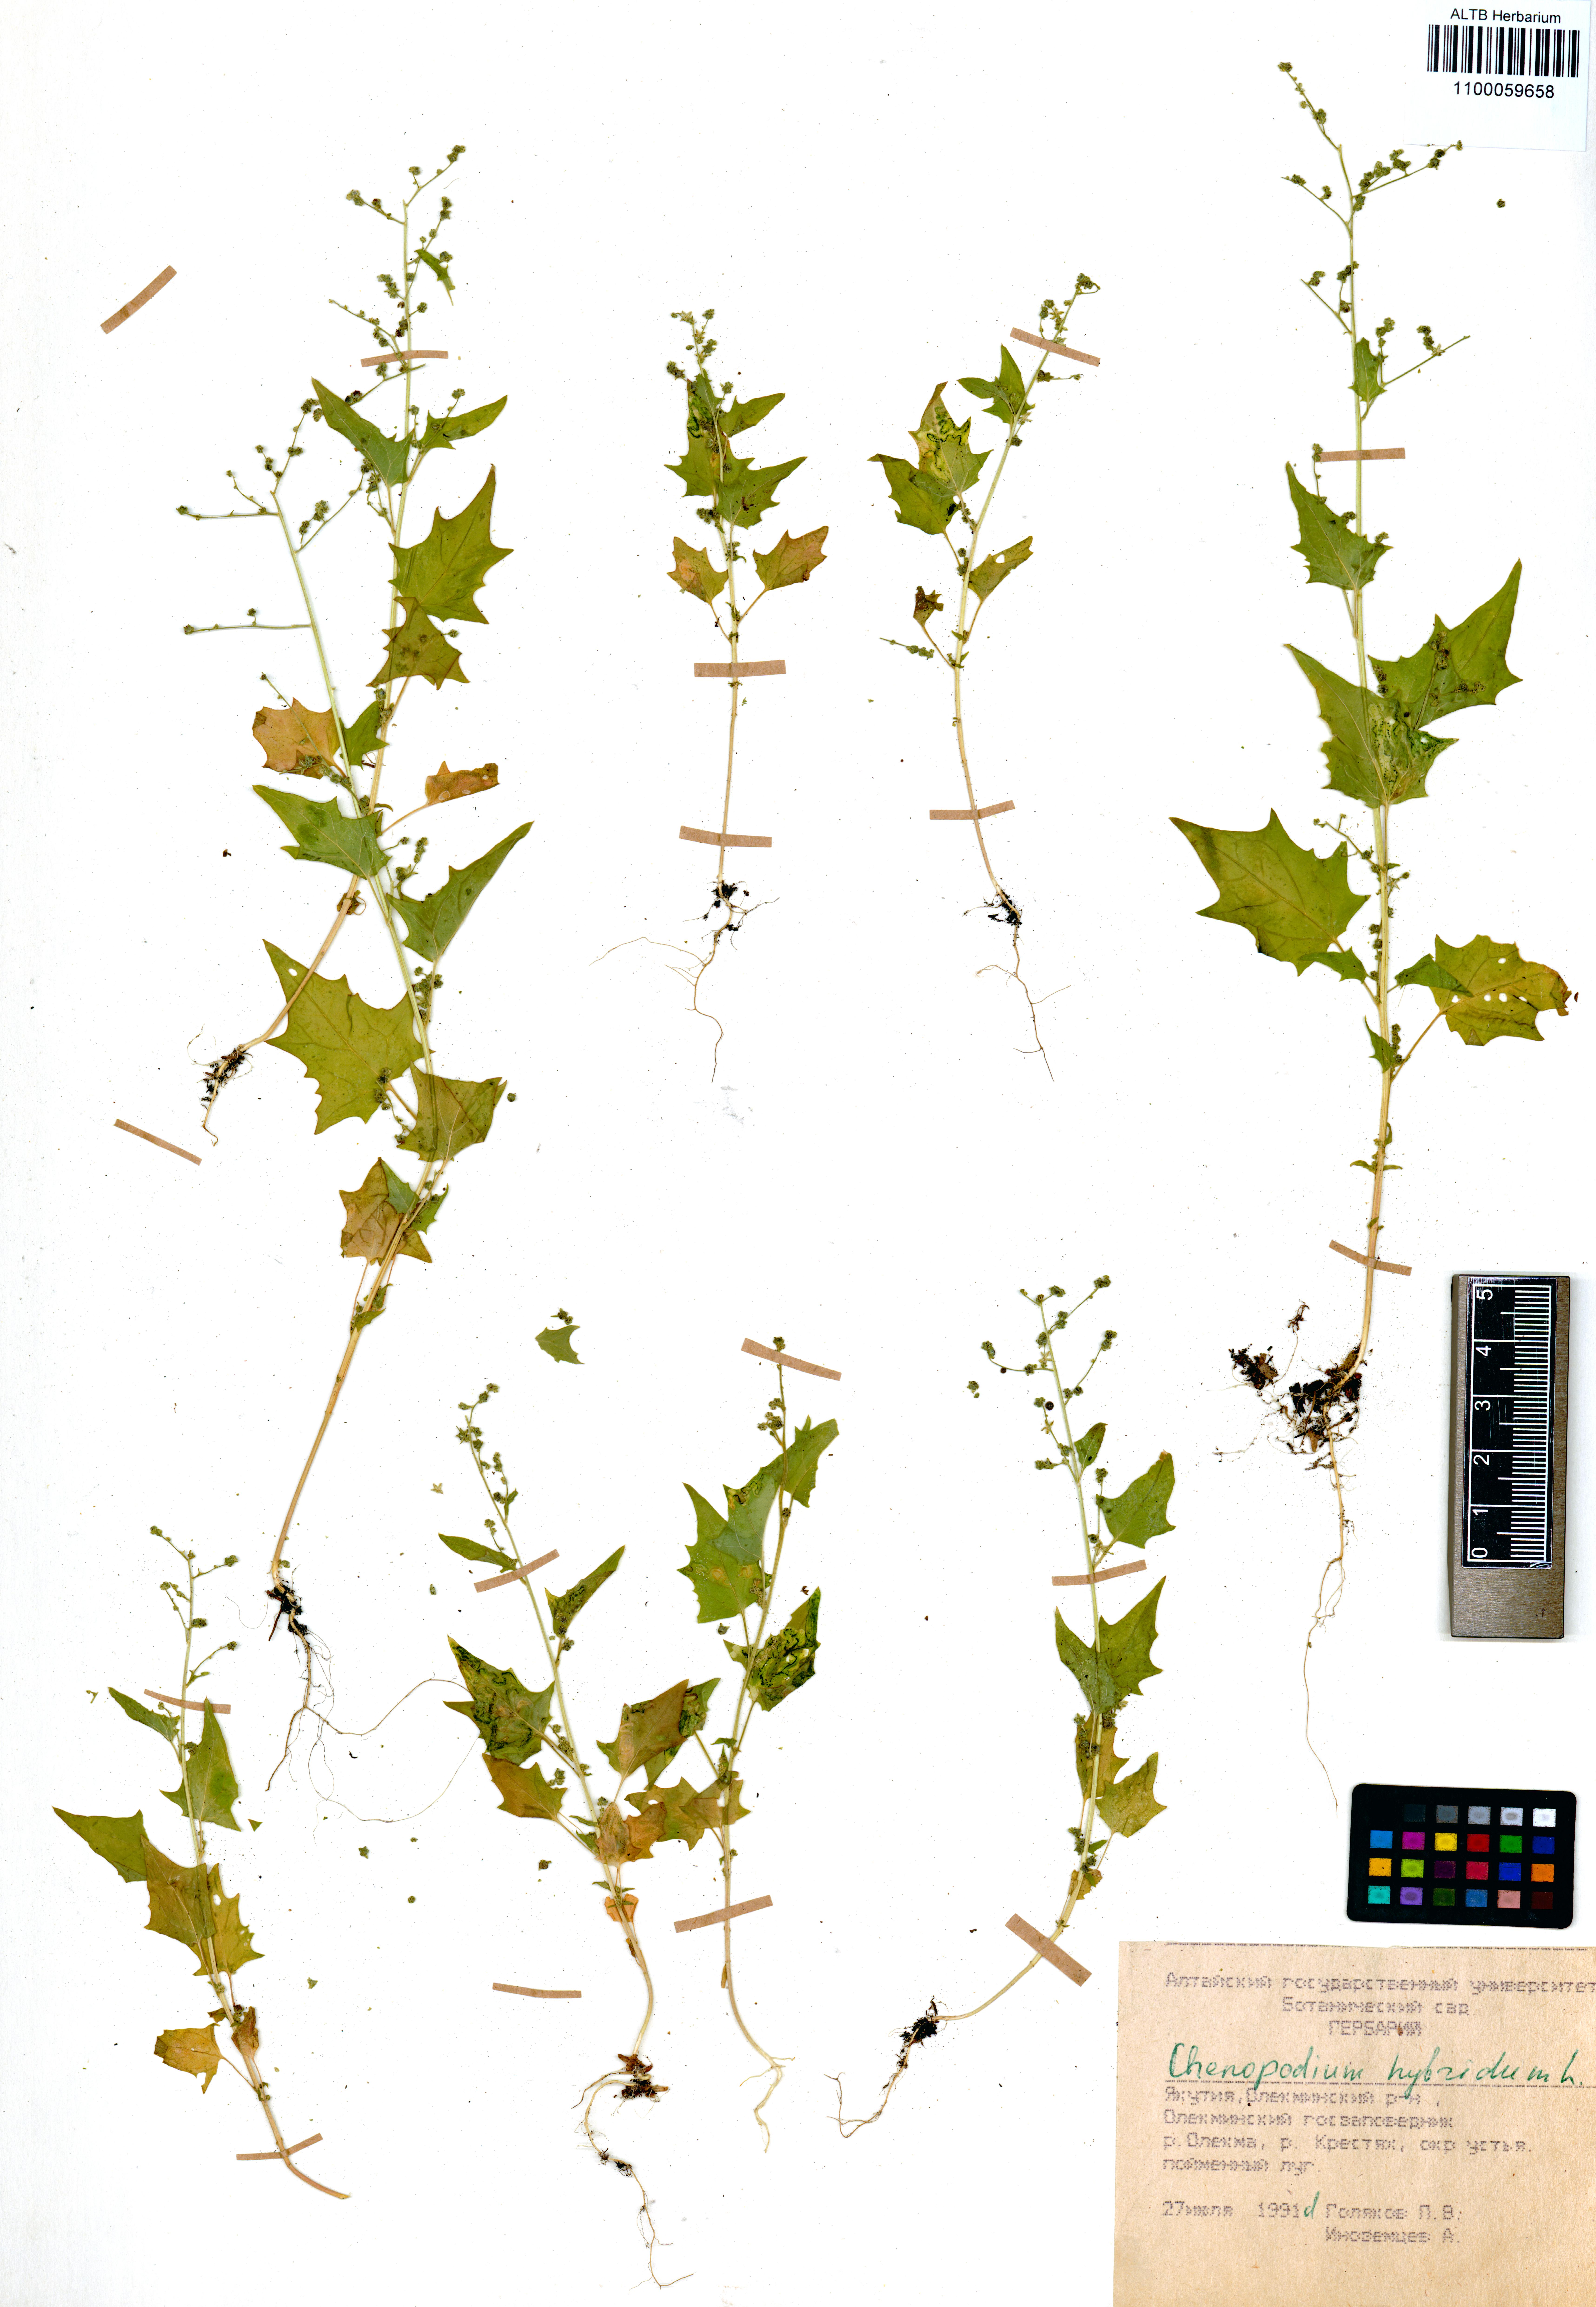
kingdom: Plantae
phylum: Tracheophyta
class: Magnoliopsida
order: Caryophyllales
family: Amaranthaceae
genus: Chenopodiastrum
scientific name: Chenopodiastrum hybridum
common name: Mapleleaf goosefoot
